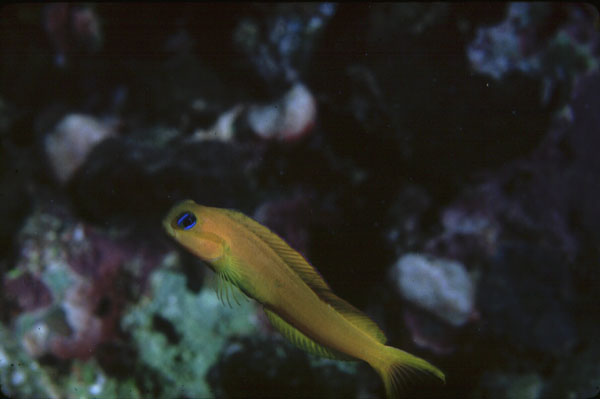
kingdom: Animalia
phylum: Chordata
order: Perciformes
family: Blenniidae
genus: Ecsenius
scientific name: Ecsenius midas
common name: Golden blenny
